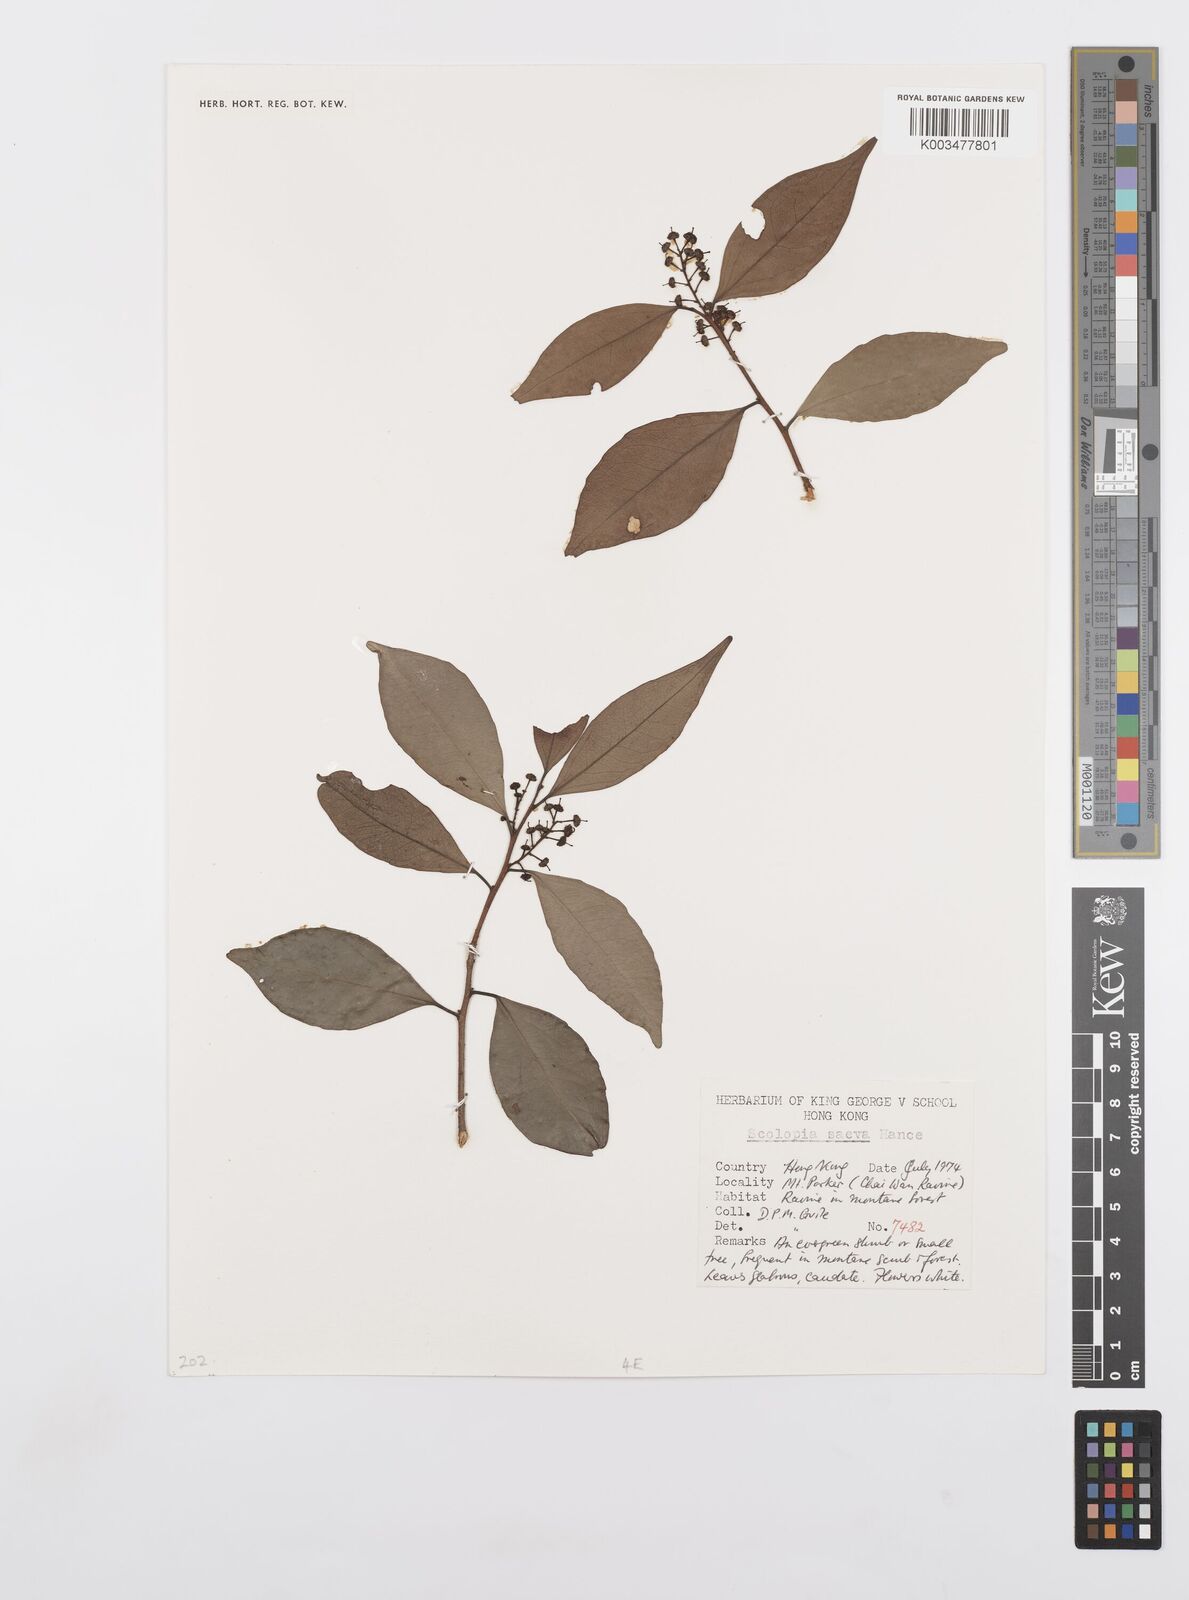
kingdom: Plantae
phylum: Tracheophyta
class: Magnoliopsida
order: Malpighiales
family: Salicaceae
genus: Scolopia
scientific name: Scolopia saeva
